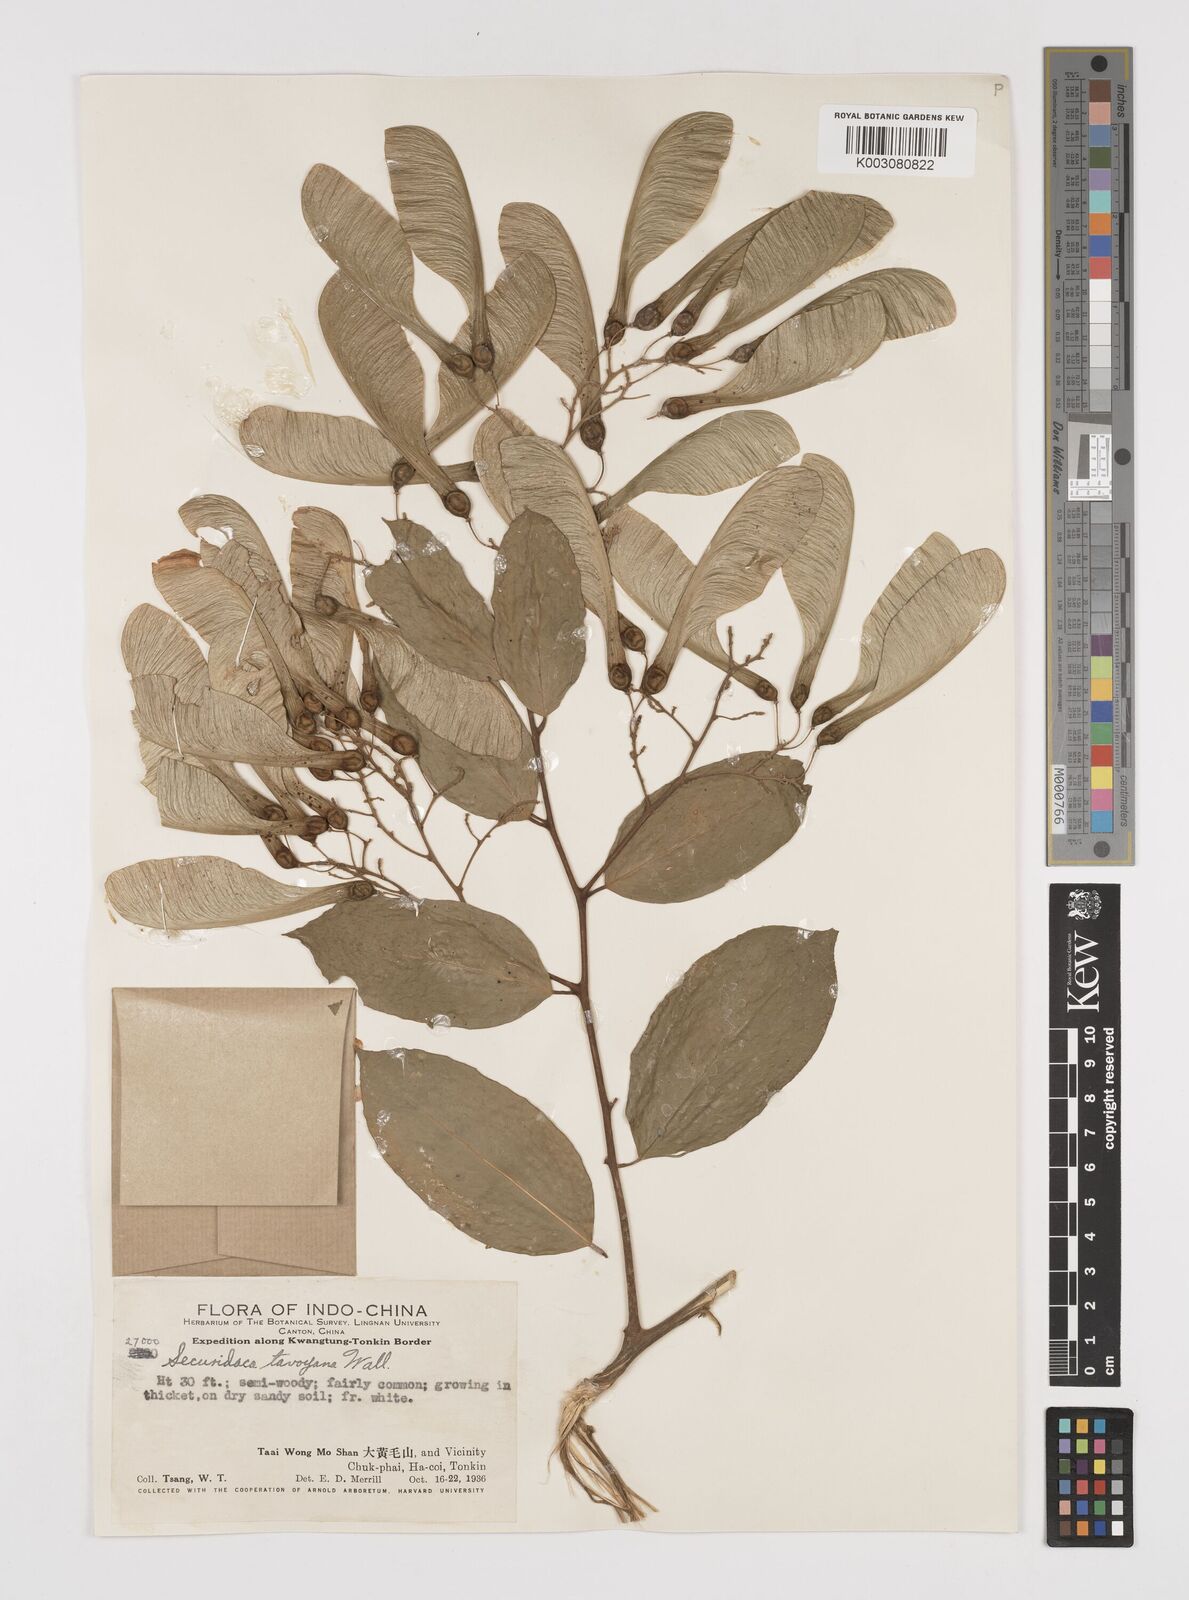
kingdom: Plantae
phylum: Tracheophyta
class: Magnoliopsida
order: Fabales
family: Polygalaceae
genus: Securidaca
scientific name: Securidaca inappendiculata
